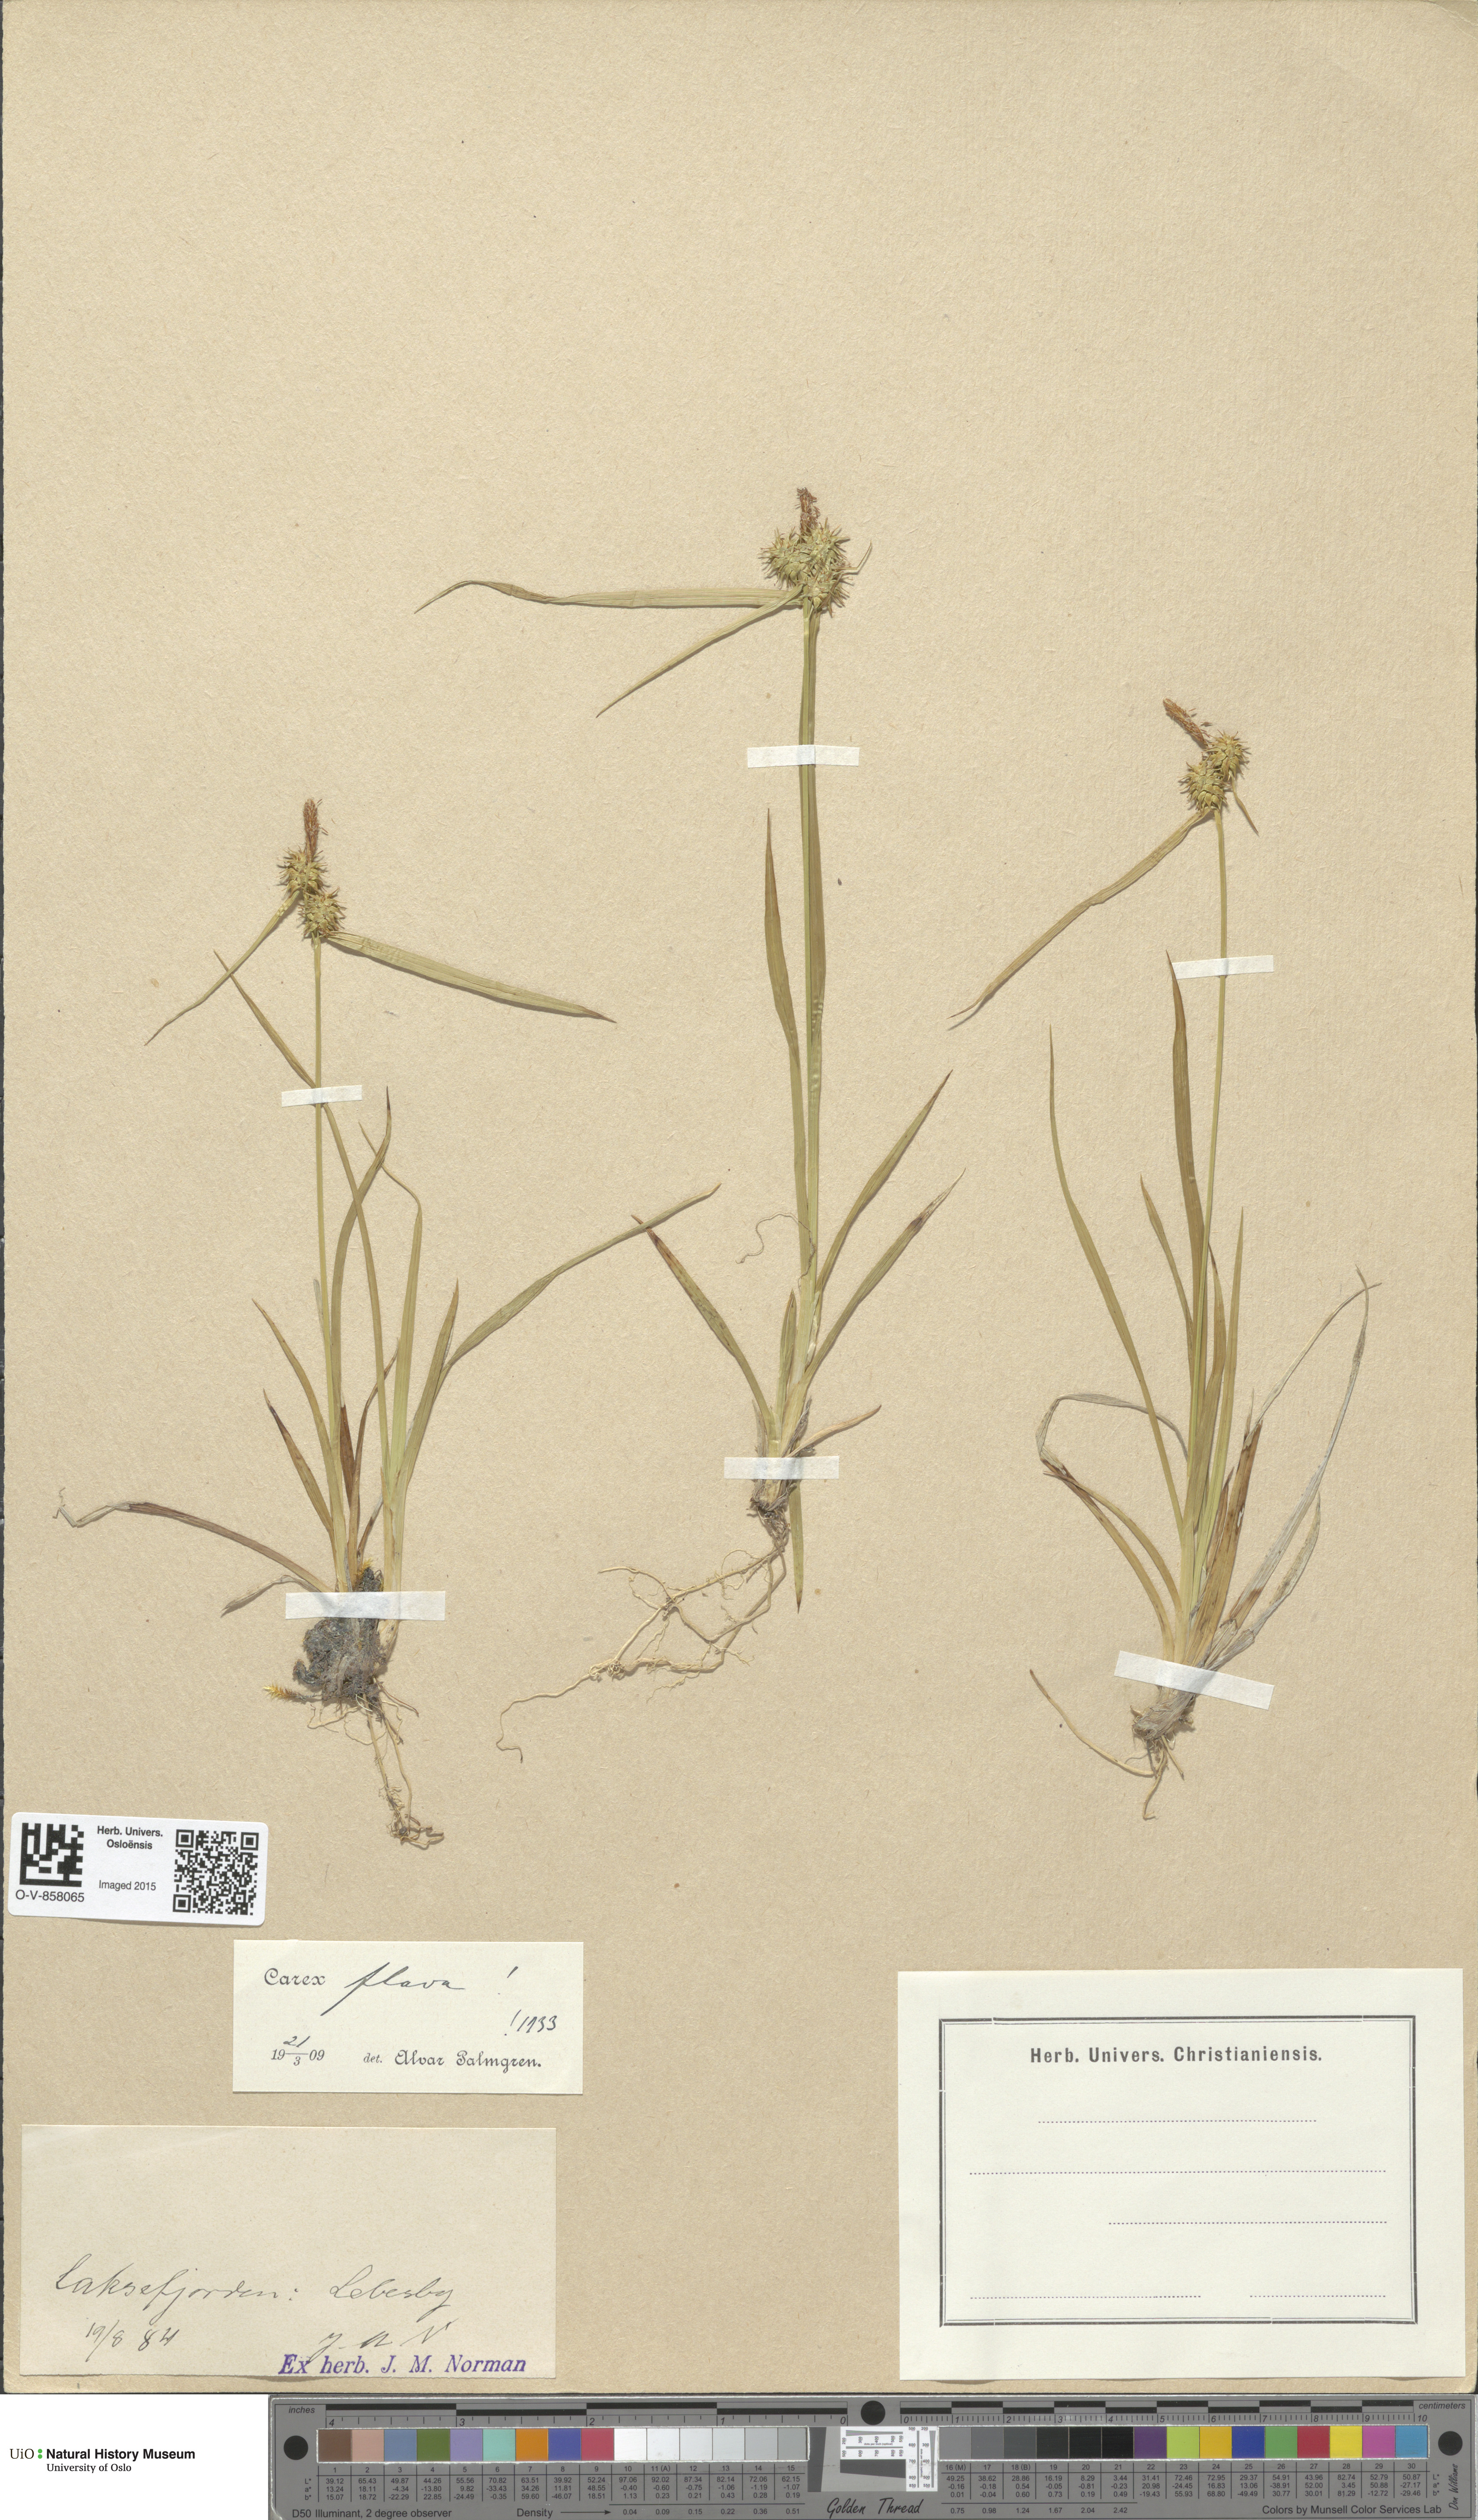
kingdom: Plantae
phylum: Tracheophyta
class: Liliopsida
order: Poales
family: Cyperaceae
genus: Carex
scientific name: Carex flava
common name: Large yellow-sedge
